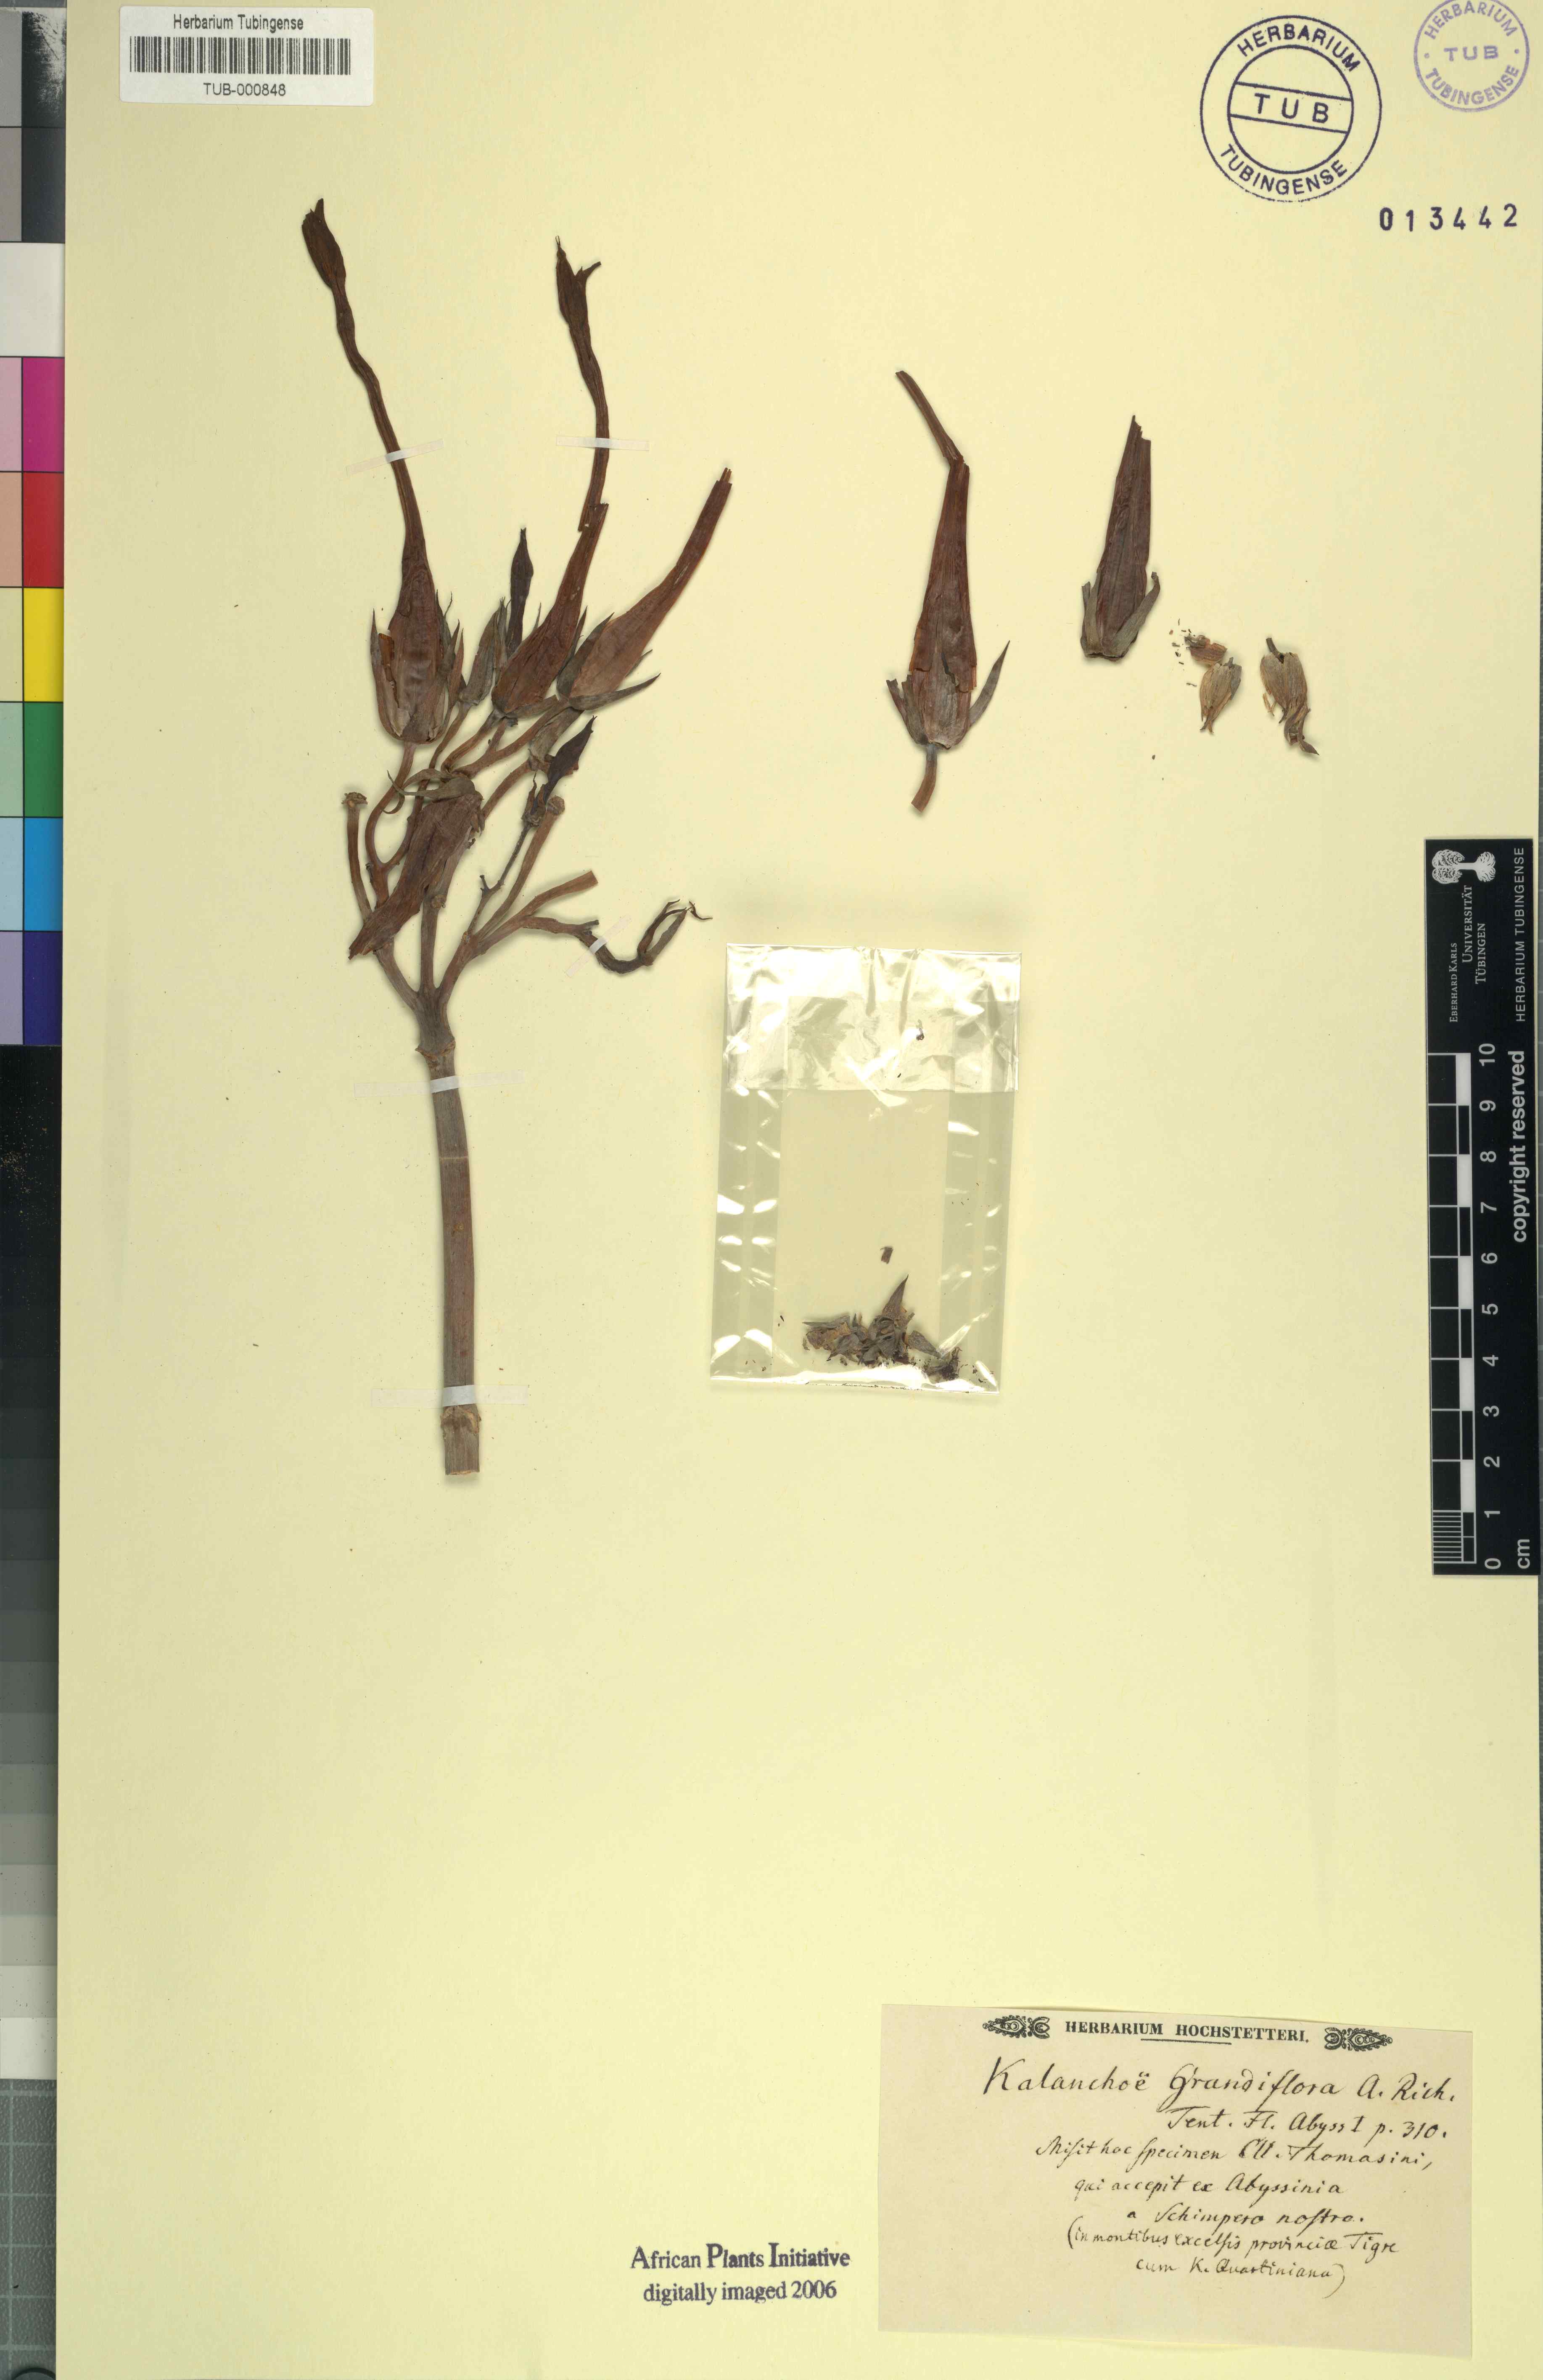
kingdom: Plantae
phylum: Tracheophyta
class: Magnoliopsida
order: Saxifragales
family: Crassulaceae
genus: Kalanchoe
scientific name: Kalanchoe marmorata
